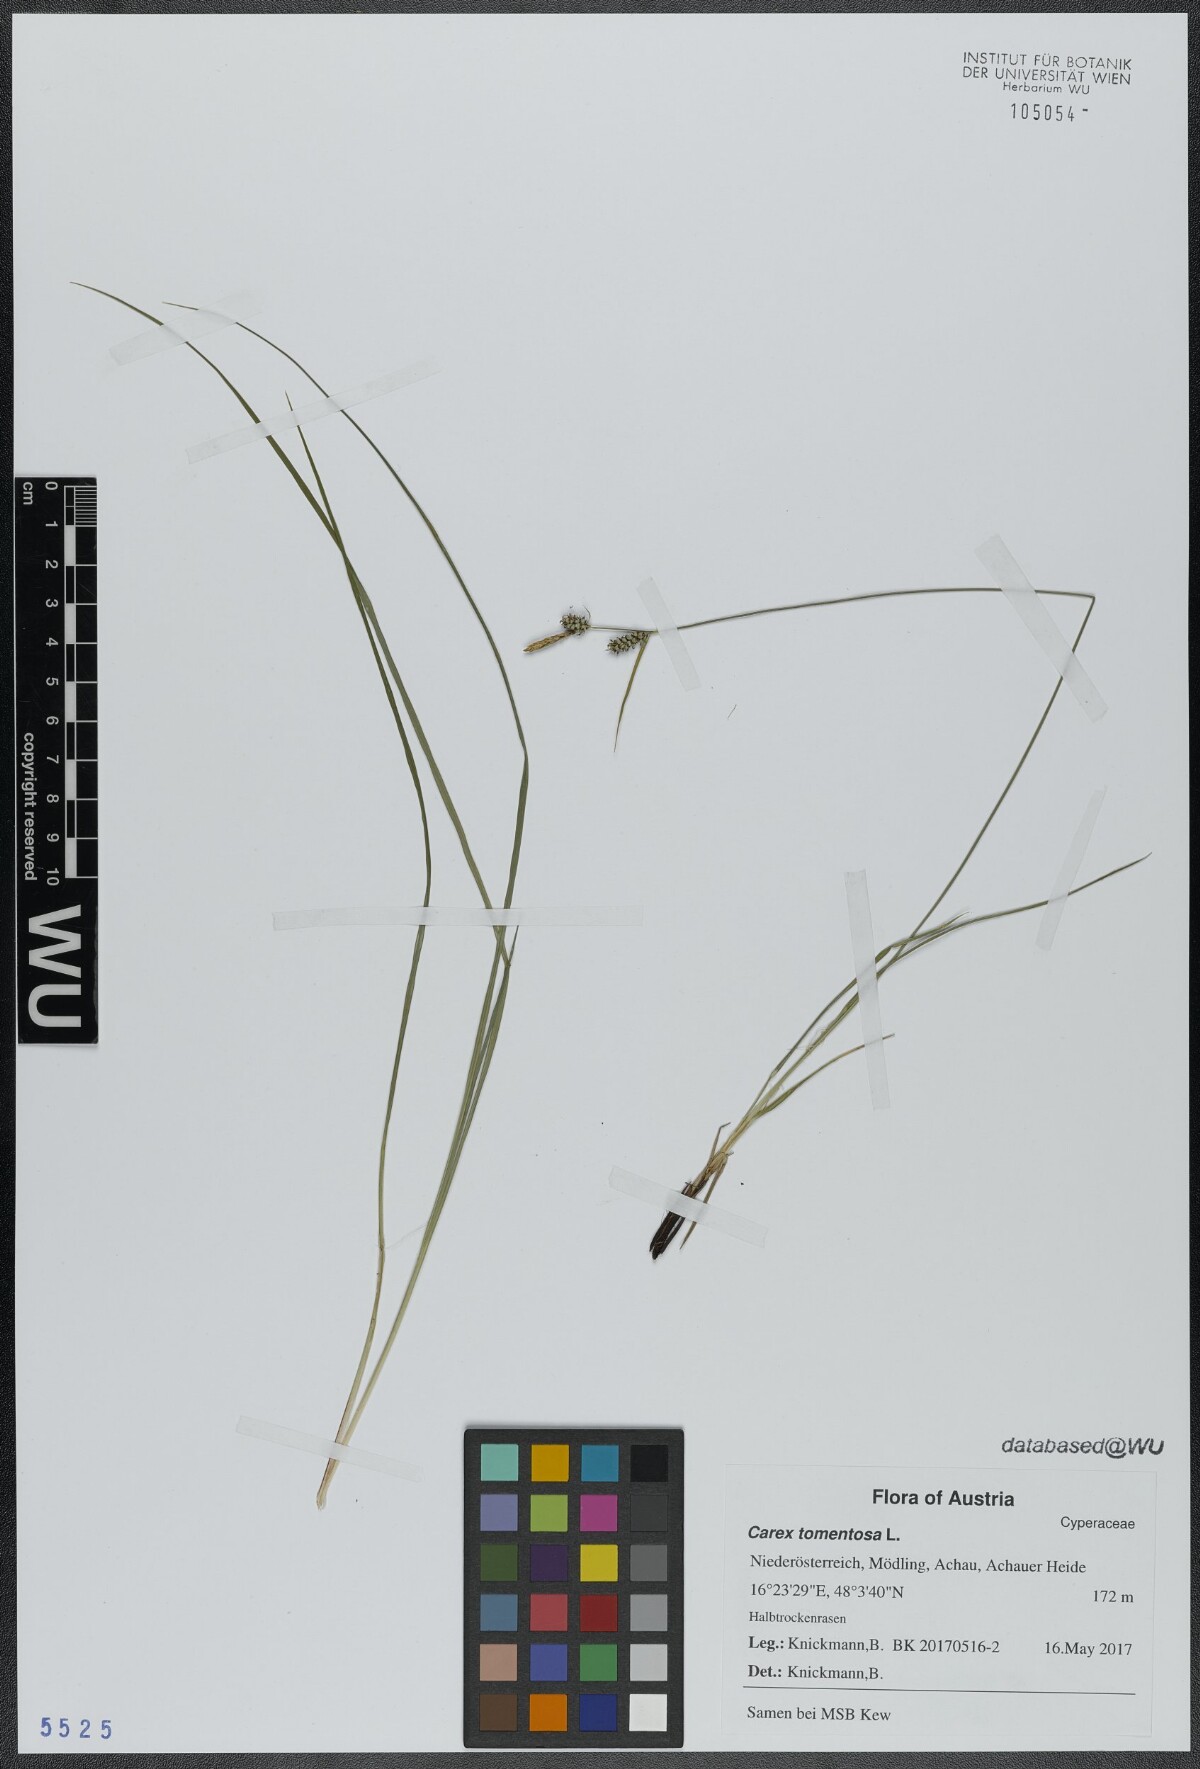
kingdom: Plantae
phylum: Tracheophyta
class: Liliopsida
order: Poales
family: Cyperaceae
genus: Carex
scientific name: Carex tomentosa
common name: Downy-fruited sedge
